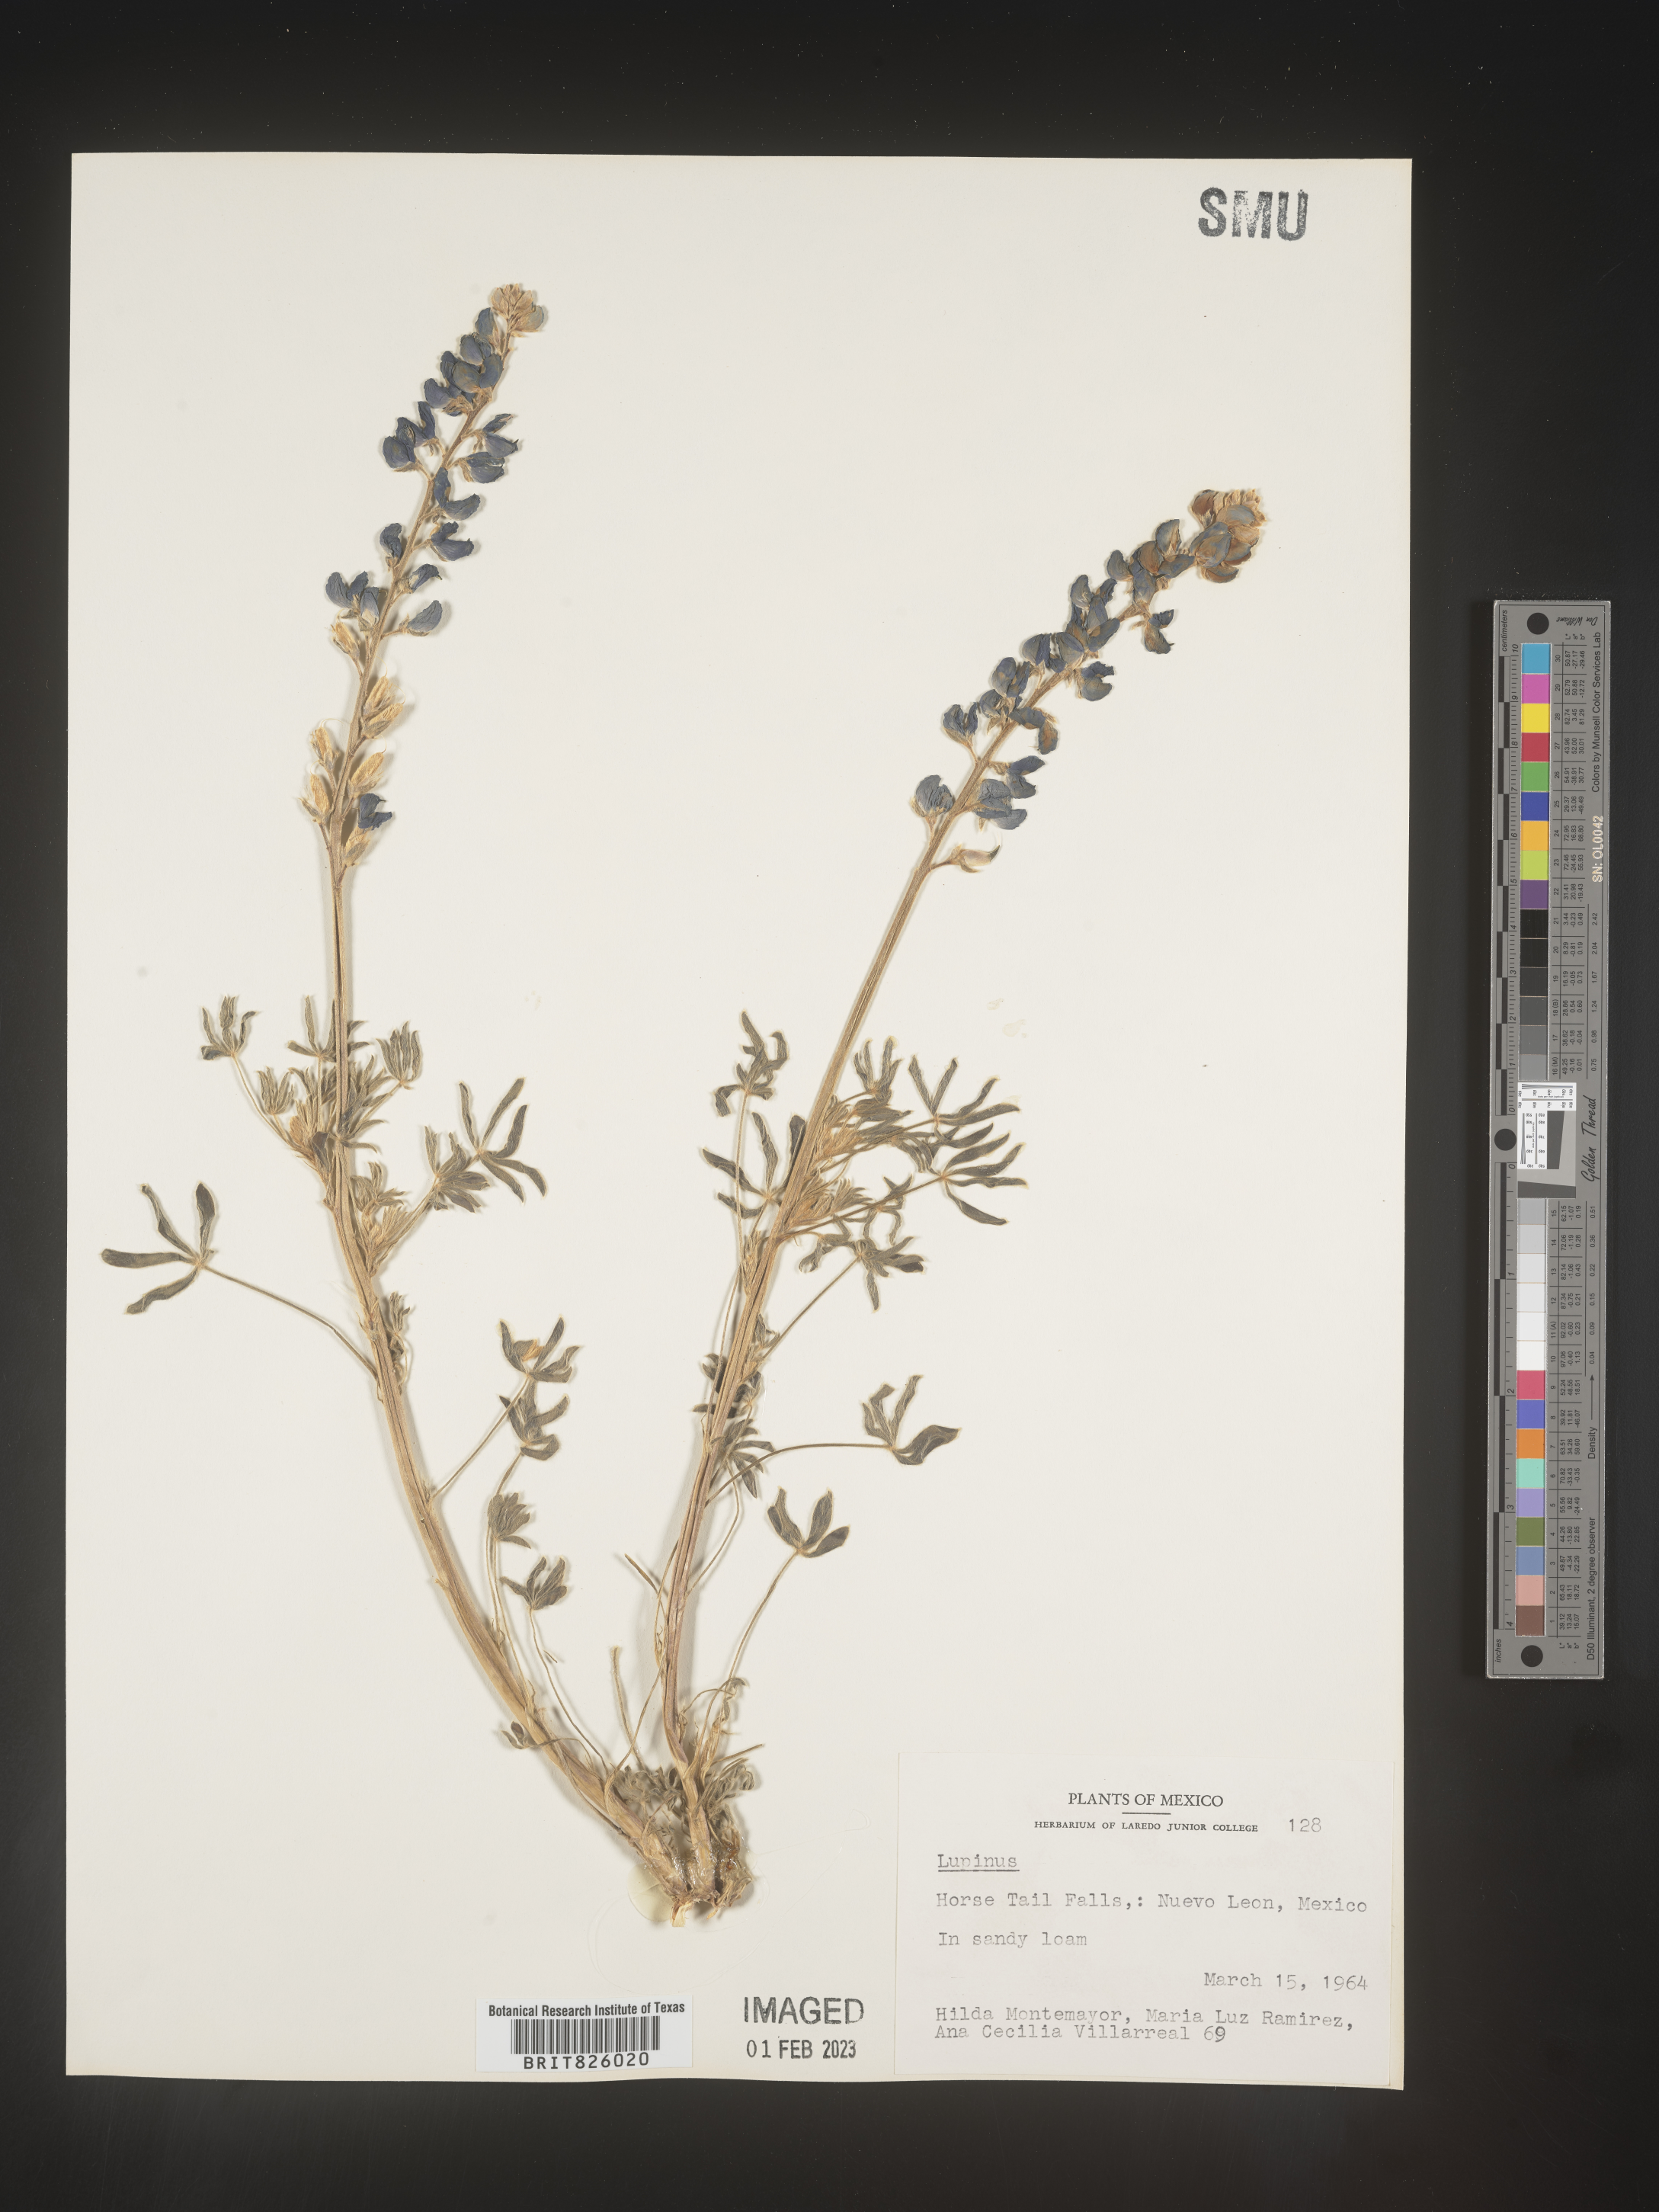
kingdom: Plantae
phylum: Tracheophyta
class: Magnoliopsida
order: Fabales
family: Fabaceae
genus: Lupinus
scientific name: Lupinus
